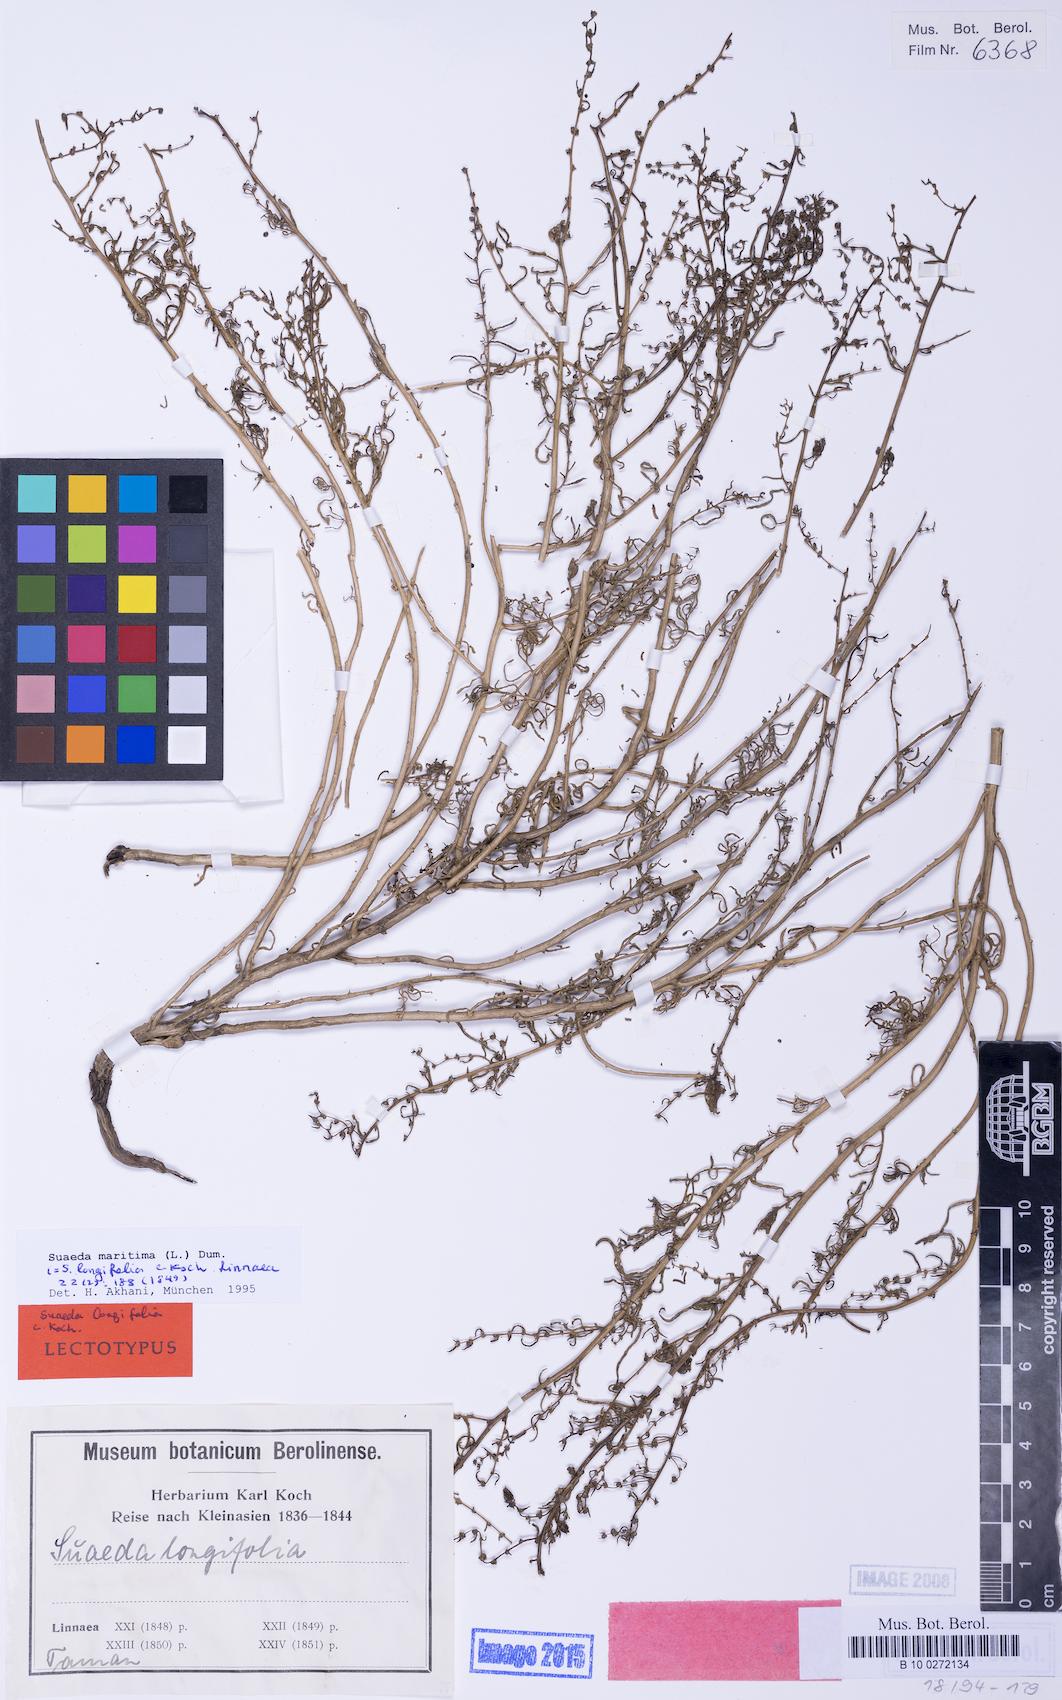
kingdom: Plantae
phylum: Tracheophyta
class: Magnoliopsida
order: Caryophyllales
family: Amaranthaceae
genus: Suaeda
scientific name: Suaeda vera
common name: Shrubby sea-blite
